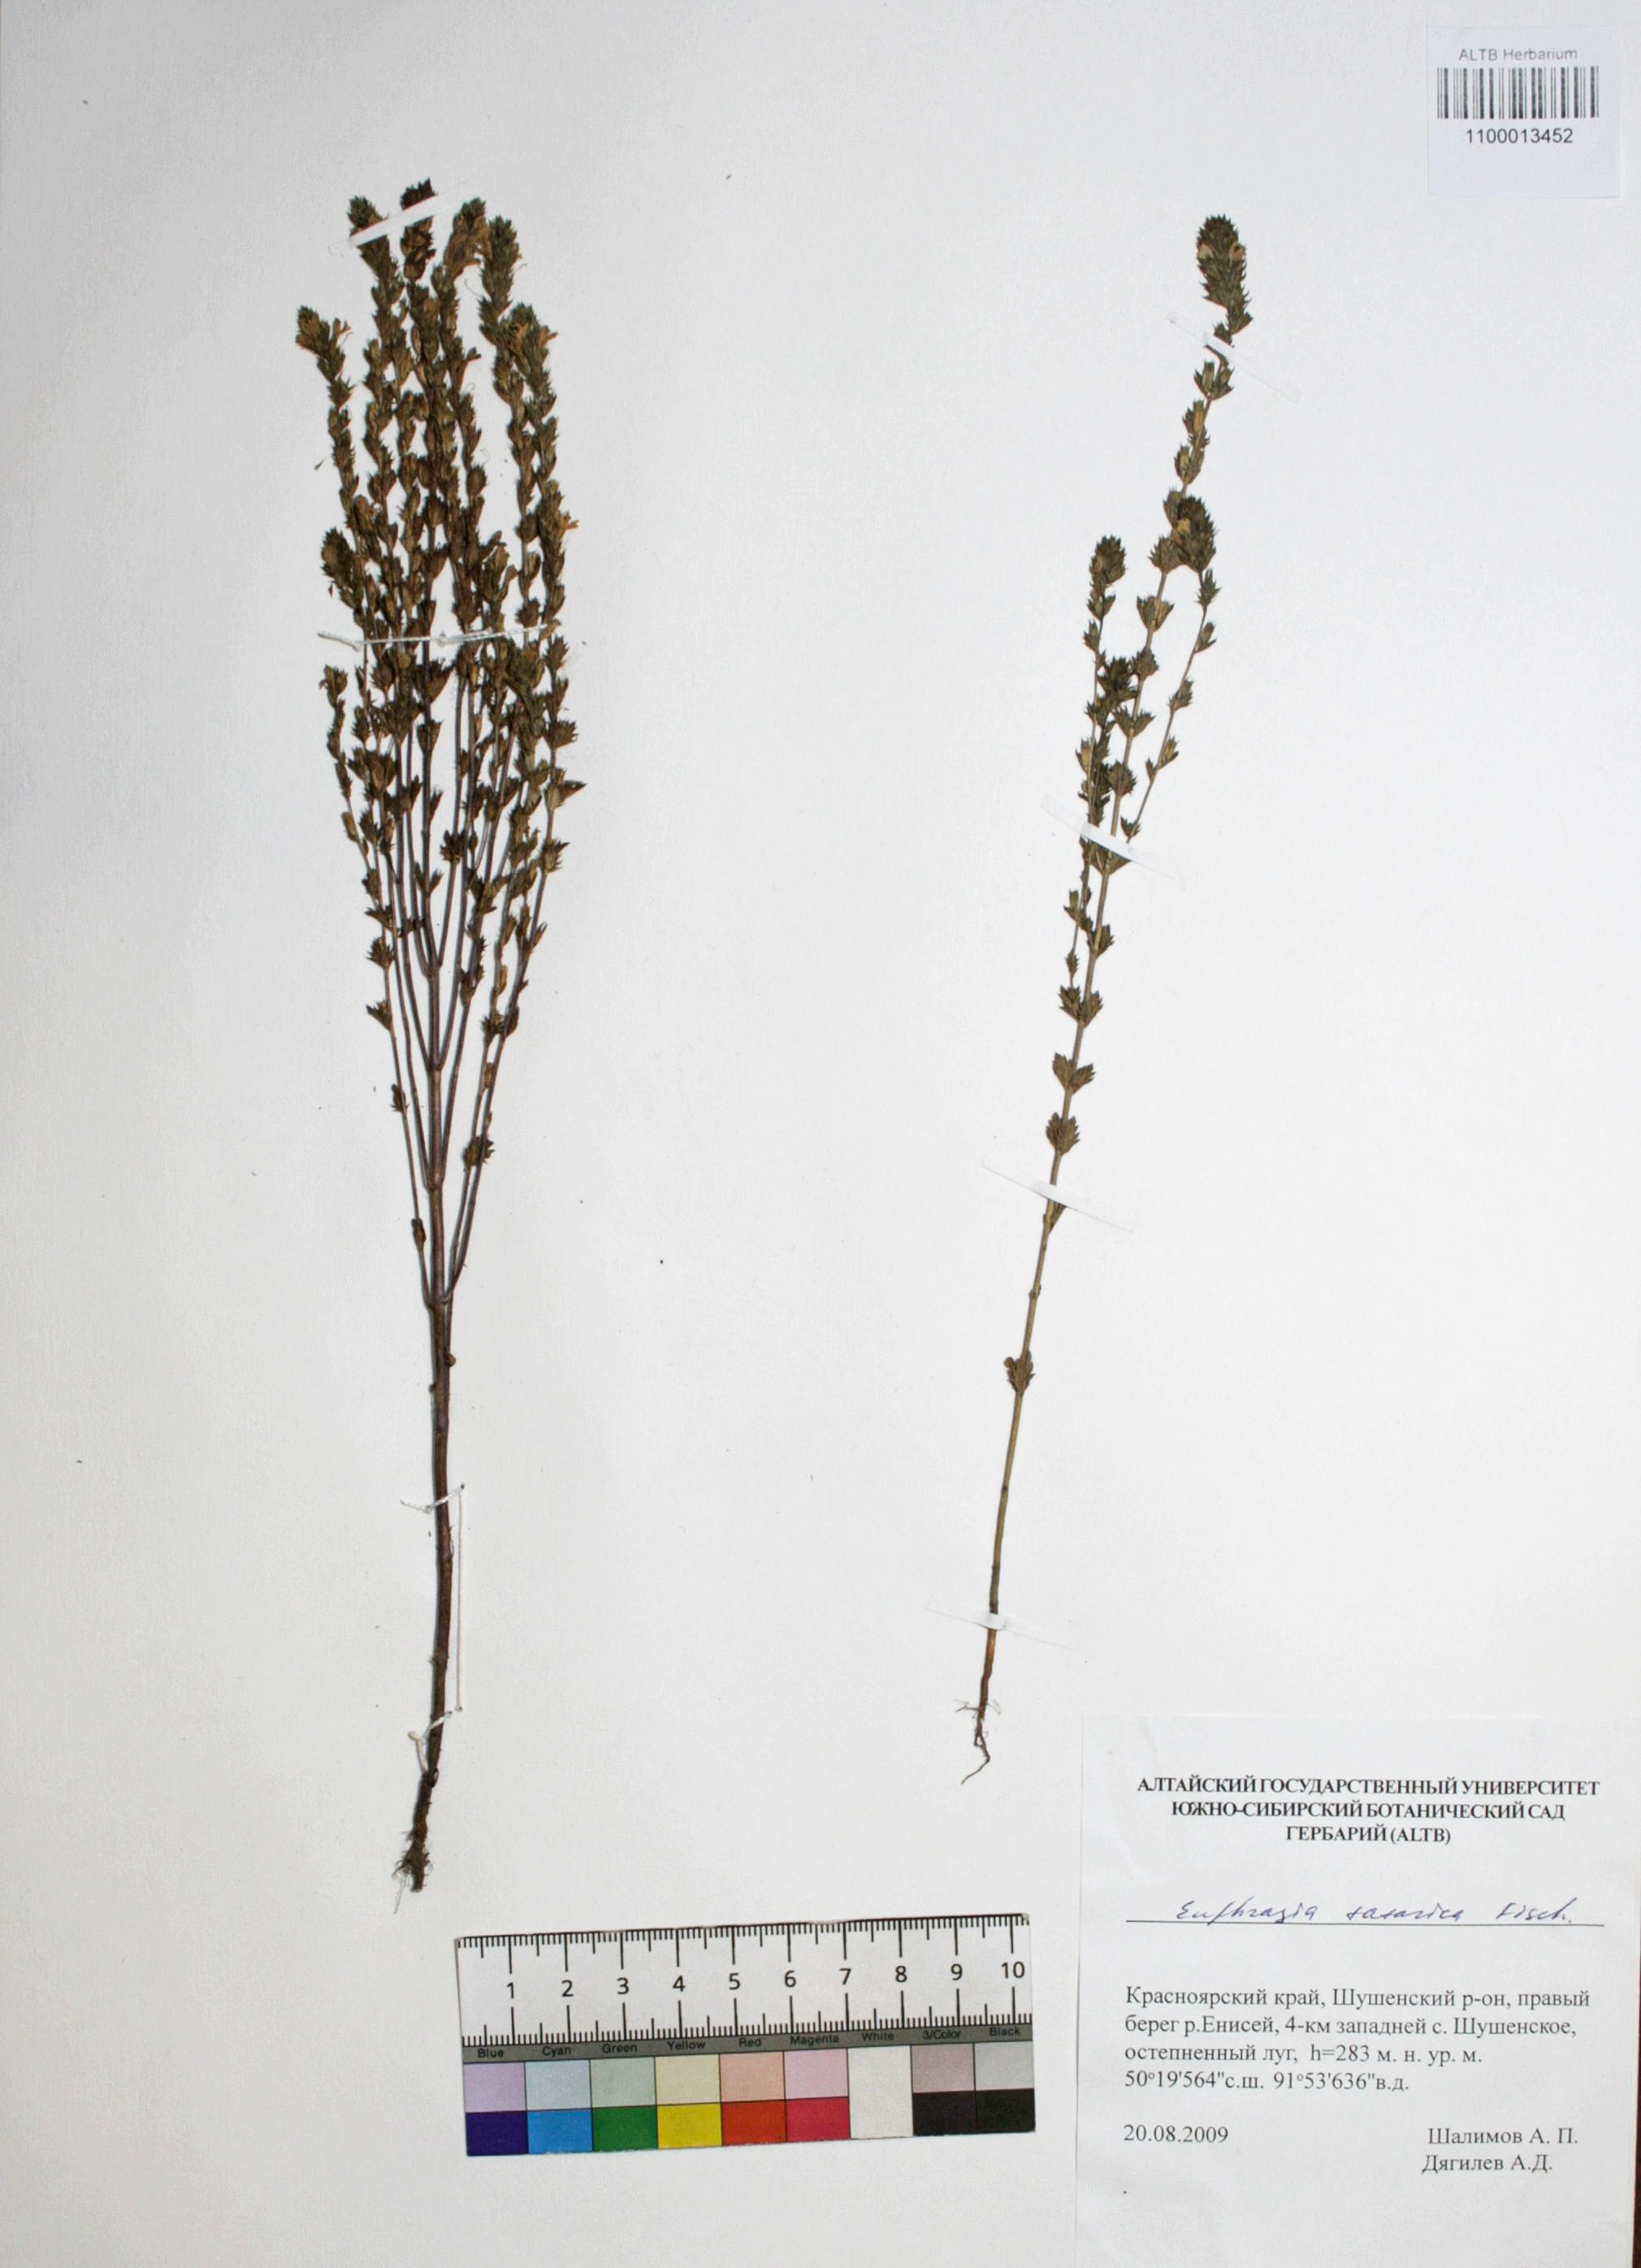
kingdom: Plantae
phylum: Tracheophyta
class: Magnoliopsida
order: Lamiales
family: Orobanchaceae
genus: Euphrasia
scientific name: Euphrasia pectinata
